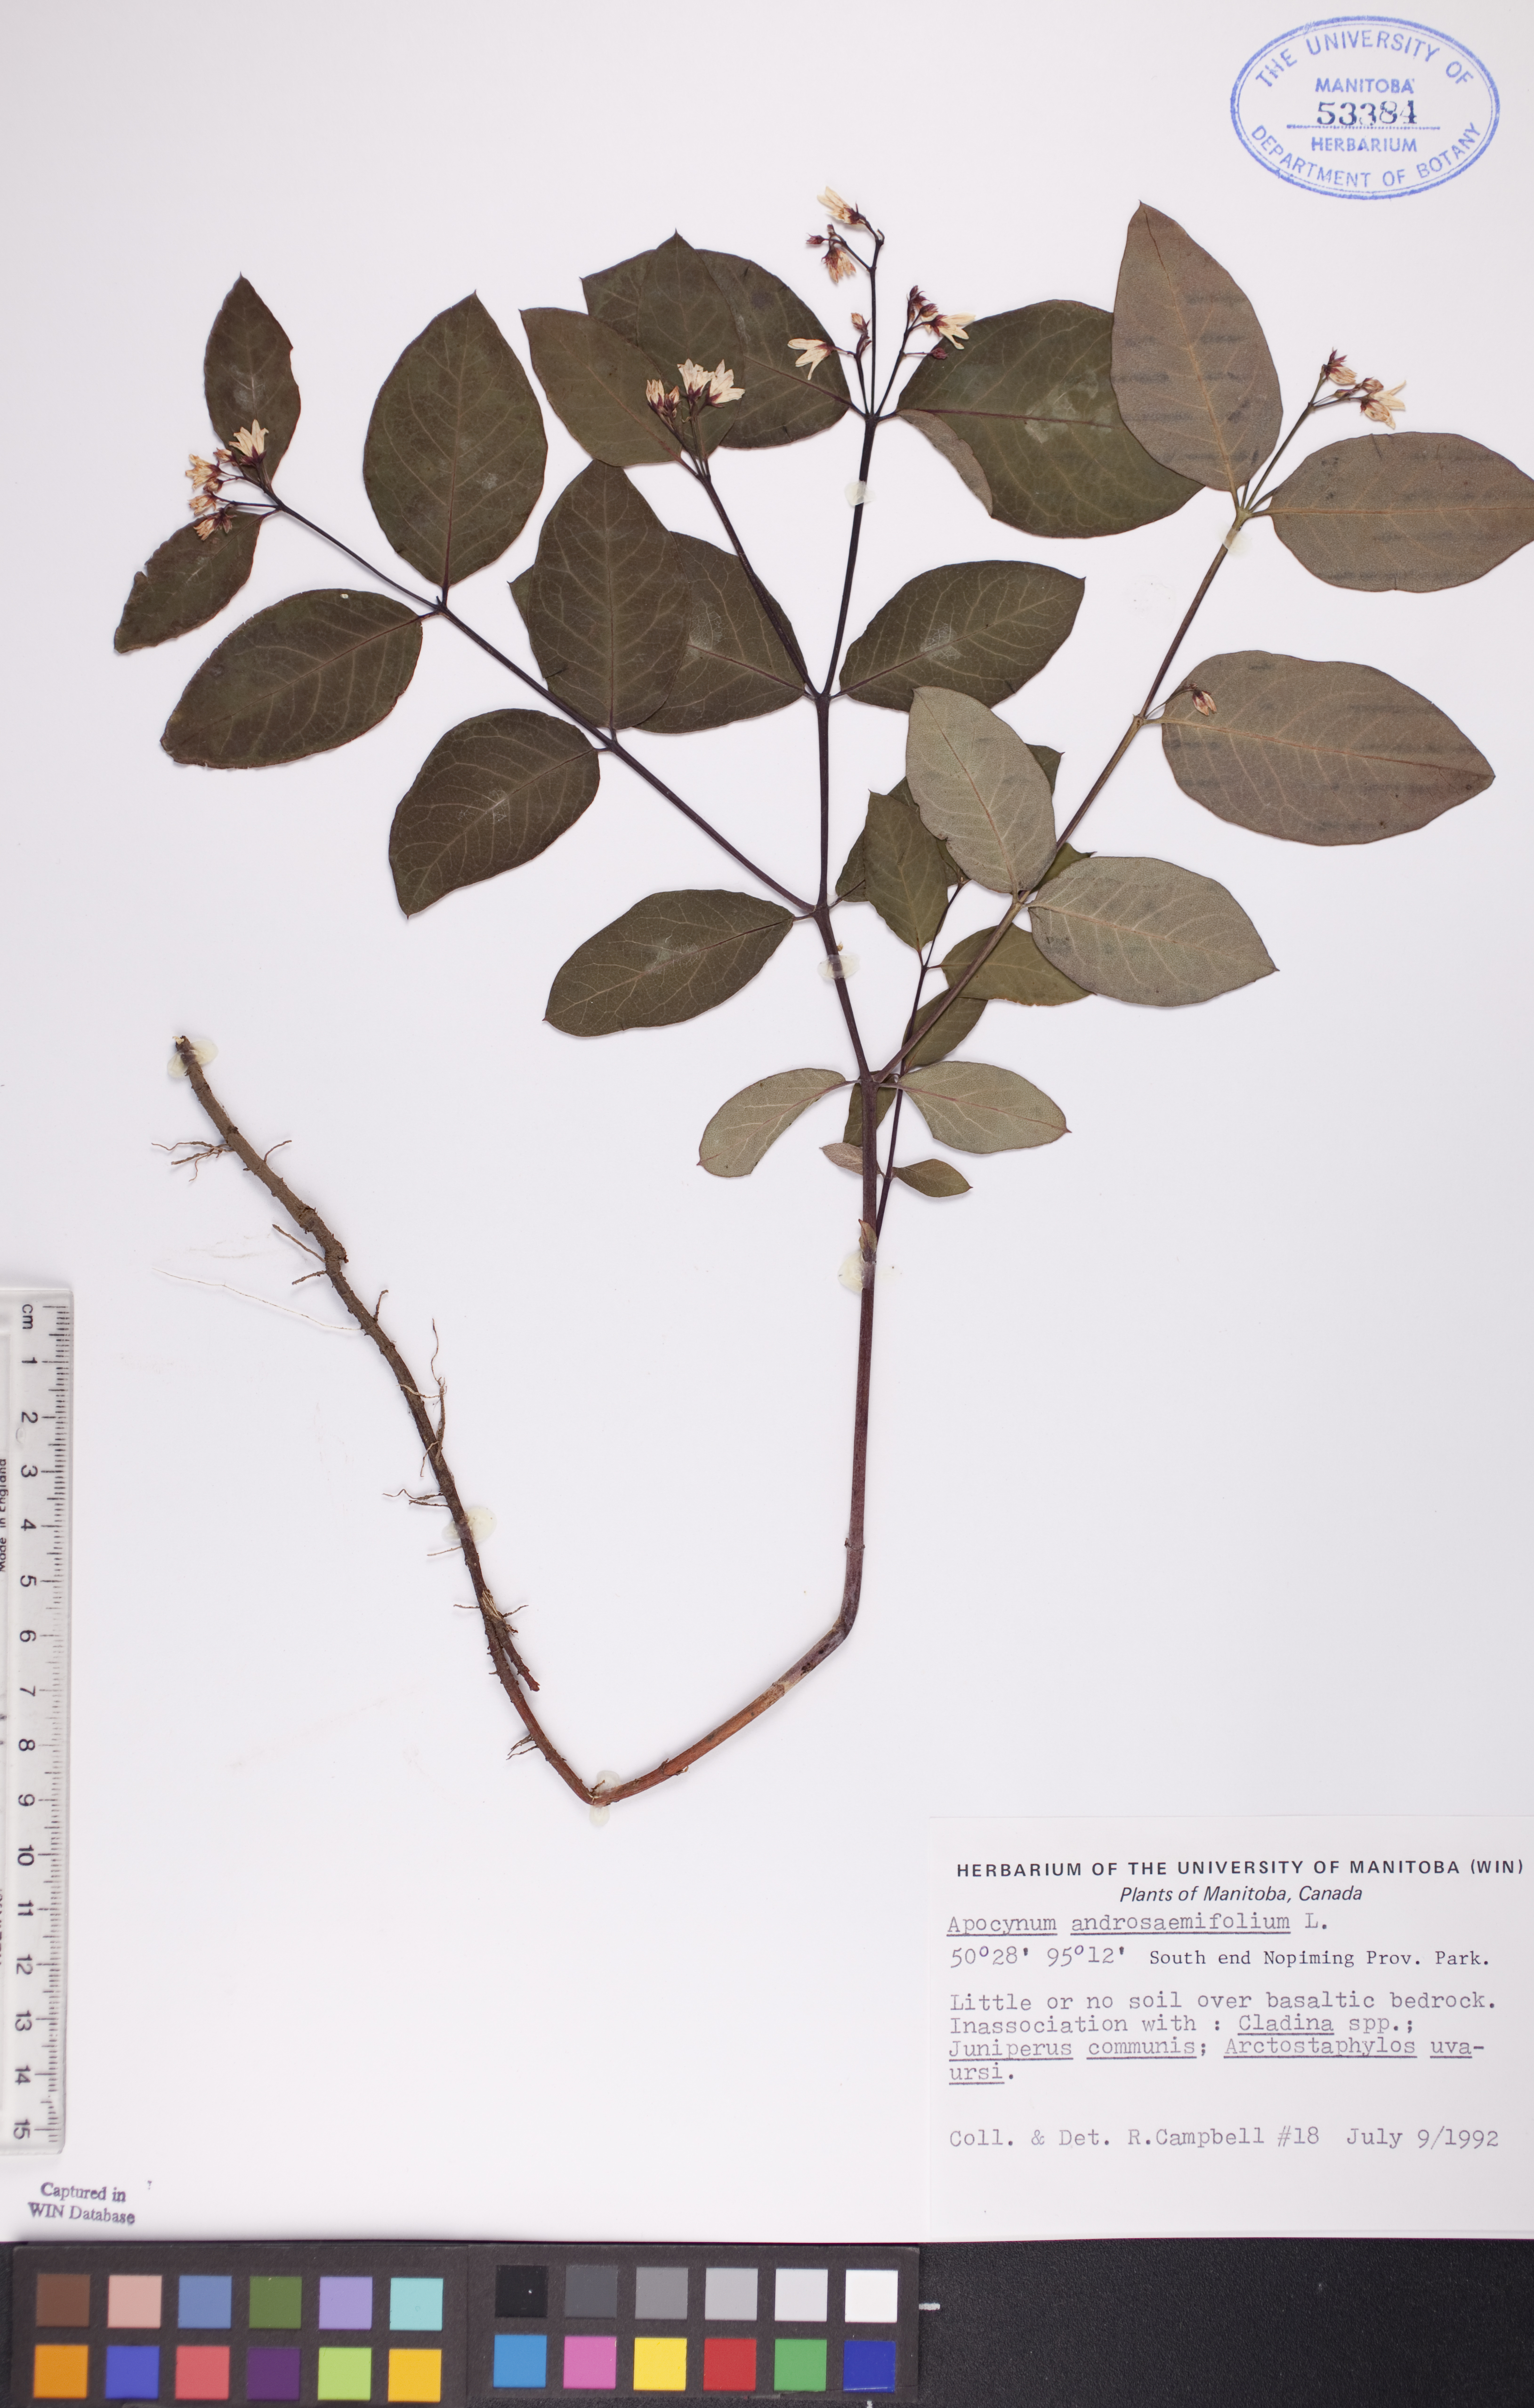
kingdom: Plantae
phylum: Tracheophyta
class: Magnoliopsida
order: Gentianales
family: Apocynaceae
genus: Apocynum
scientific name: Apocynum androsaemifolium
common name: Spreading dogbane
